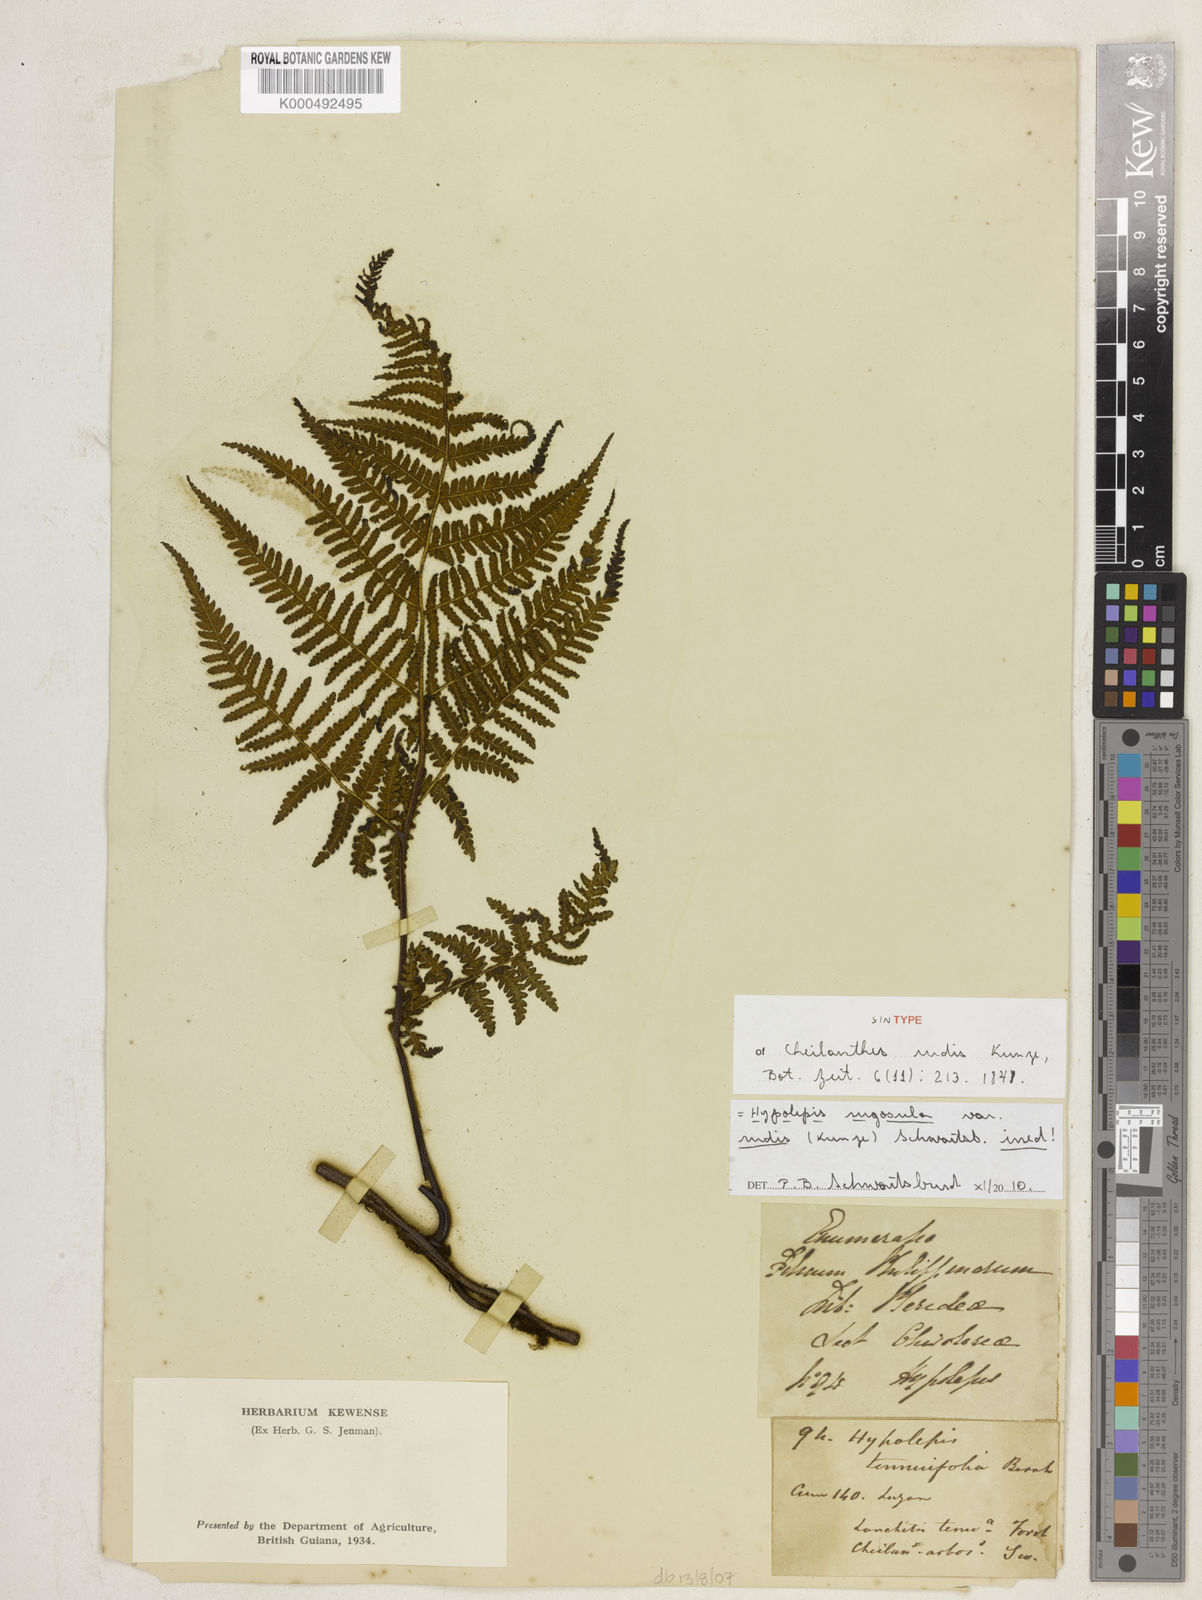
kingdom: Plantae
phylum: Tracheophyta
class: Polypodiopsida
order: Polypodiales
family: Dennstaedtiaceae
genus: Hypolepis
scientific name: Hypolepis rugosula
